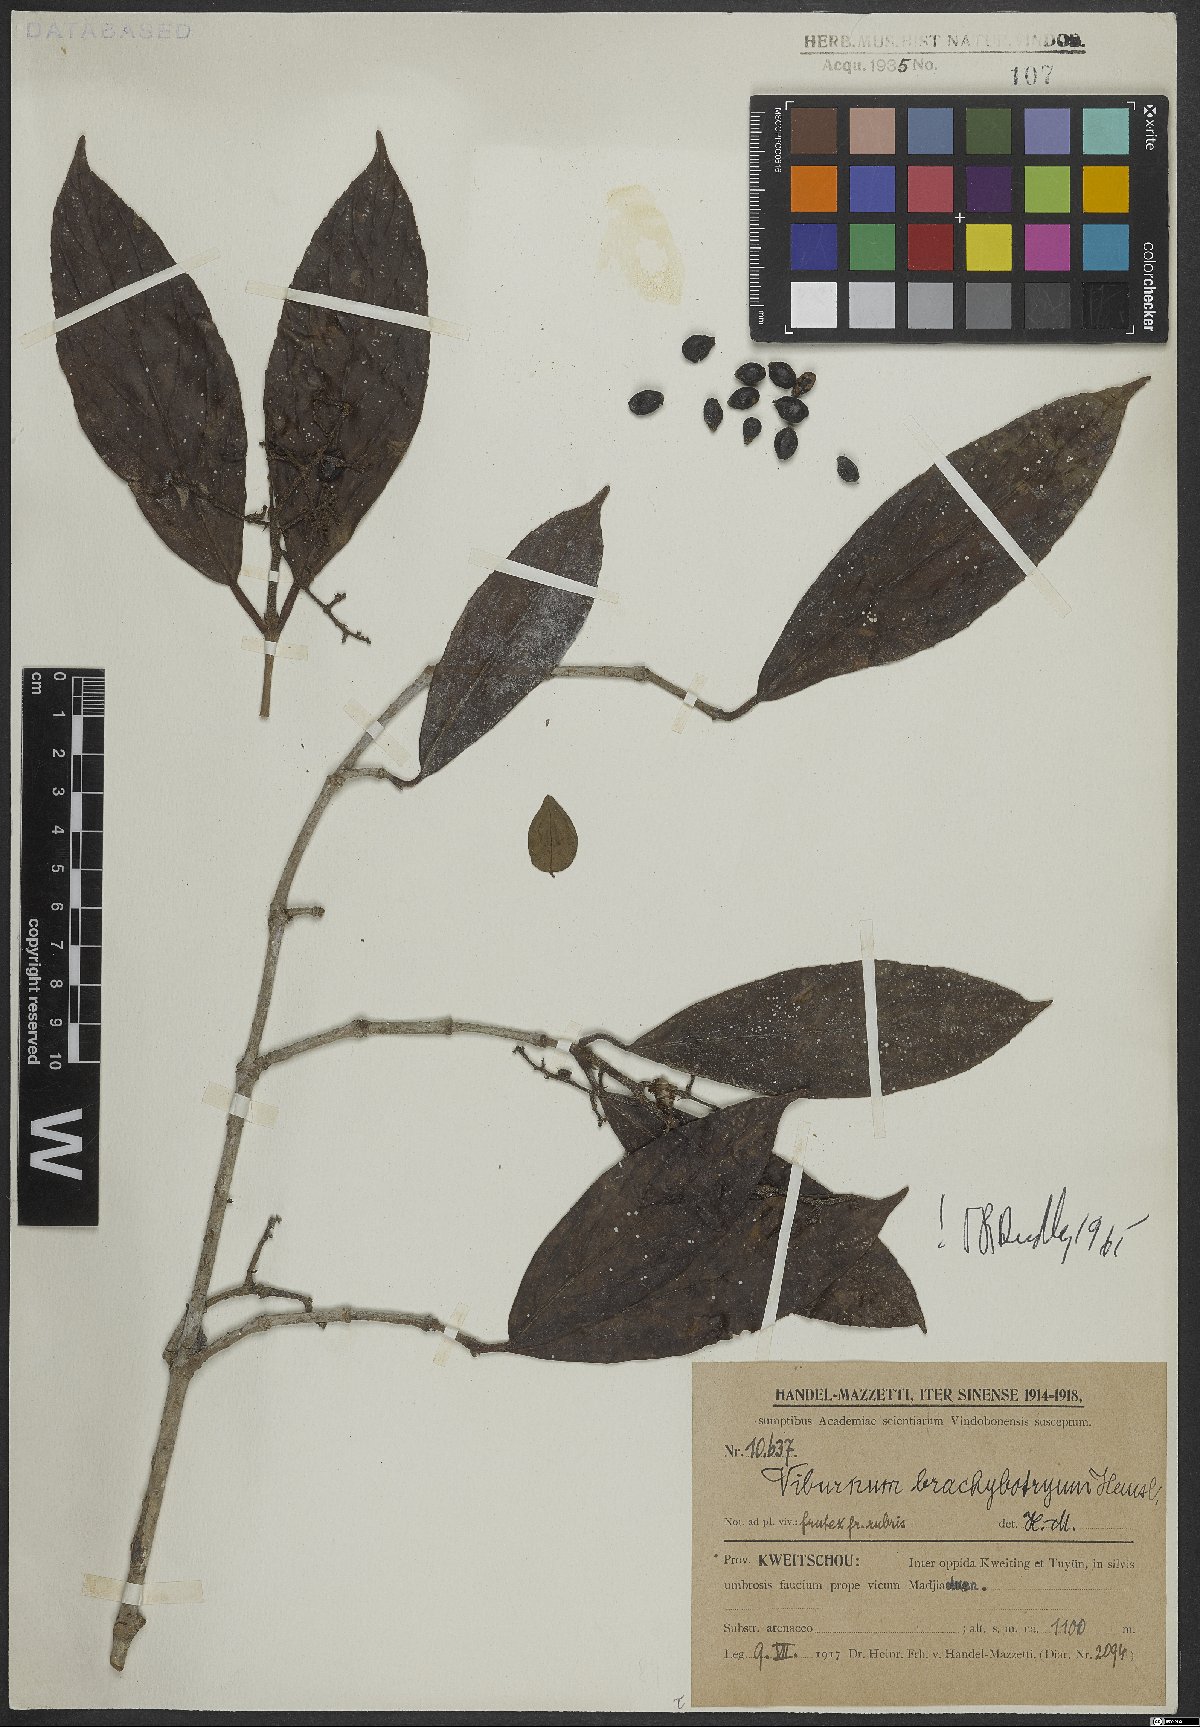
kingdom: Plantae
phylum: Tracheophyta
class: Magnoliopsida
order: Dipsacales
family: Viburnaceae
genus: Viburnum
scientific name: Viburnum brachybotryum
